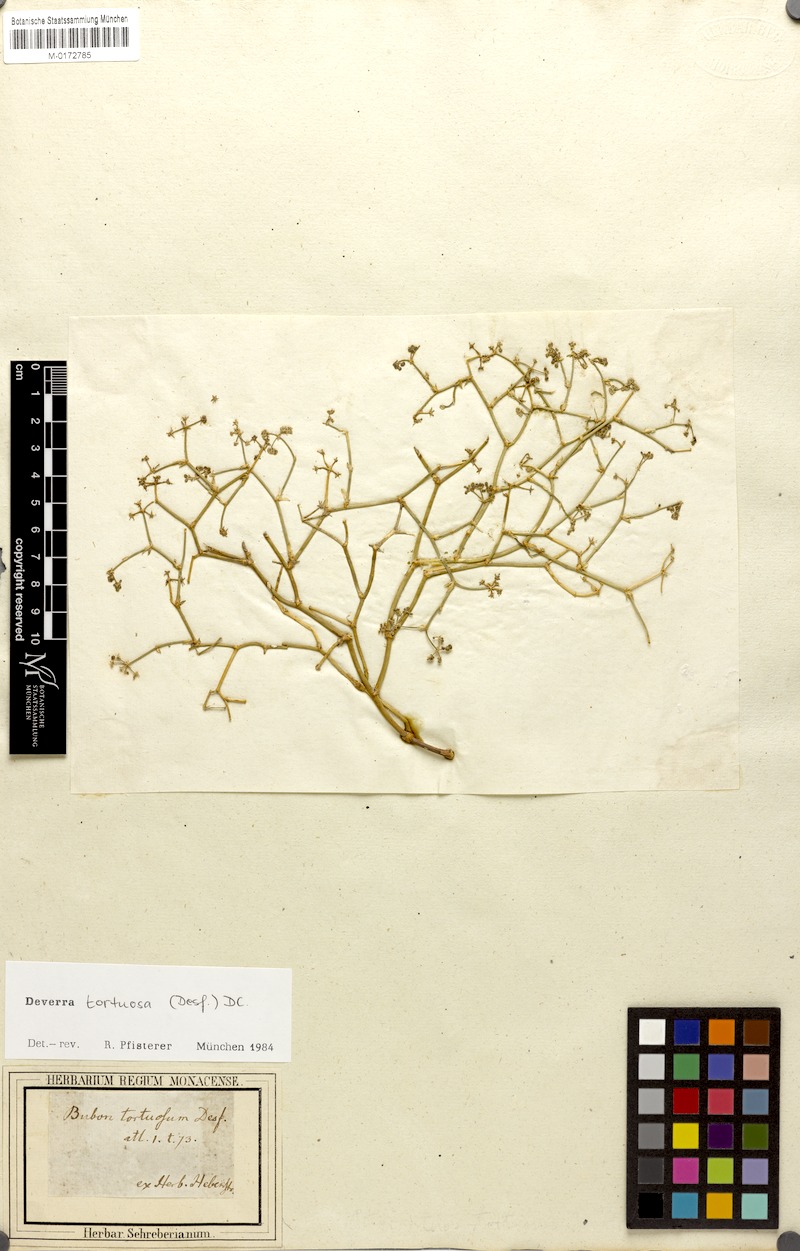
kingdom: Plantae
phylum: Tracheophyta
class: Magnoliopsida
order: Apiales
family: Apiaceae
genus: Deverra
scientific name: Deverra tortuosa
